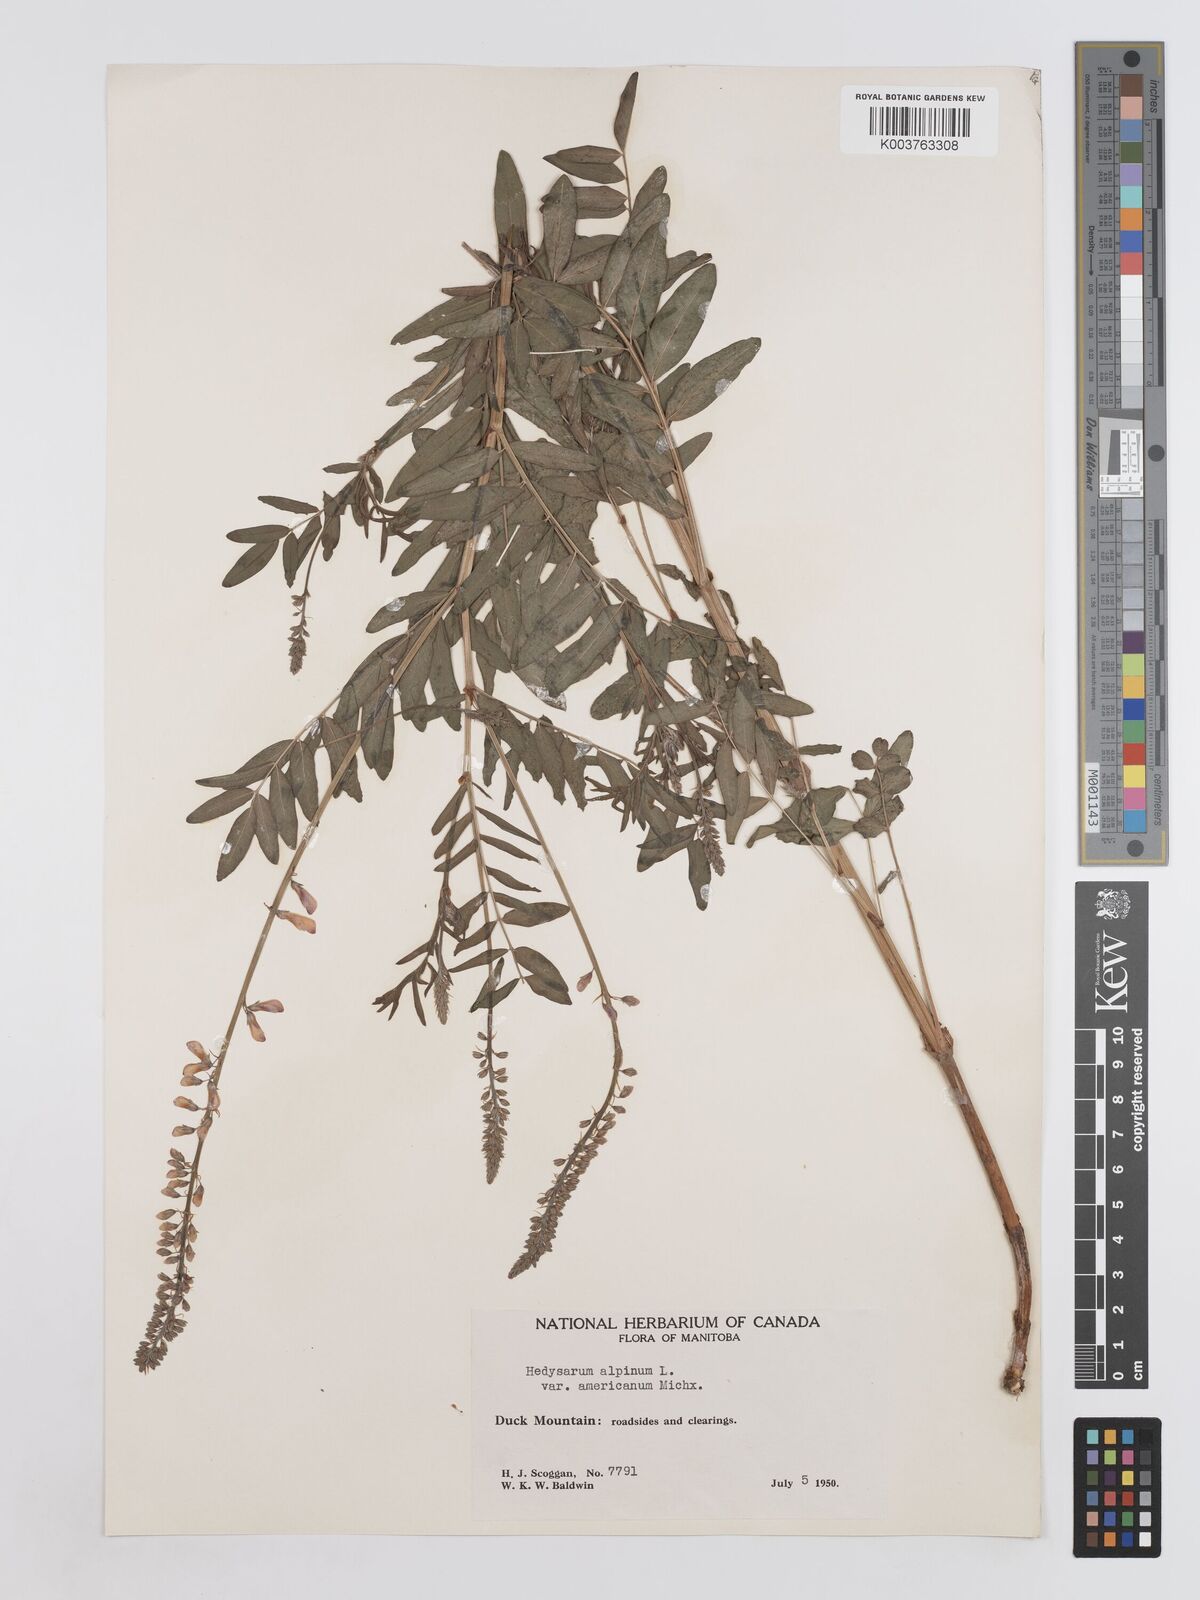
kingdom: Plantae
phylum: Tracheophyta
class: Magnoliopsida
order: Fabales
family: Fabaceae
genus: Hedysarum
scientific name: Hedysarum alpinum
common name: Alpine sweet-vetch
